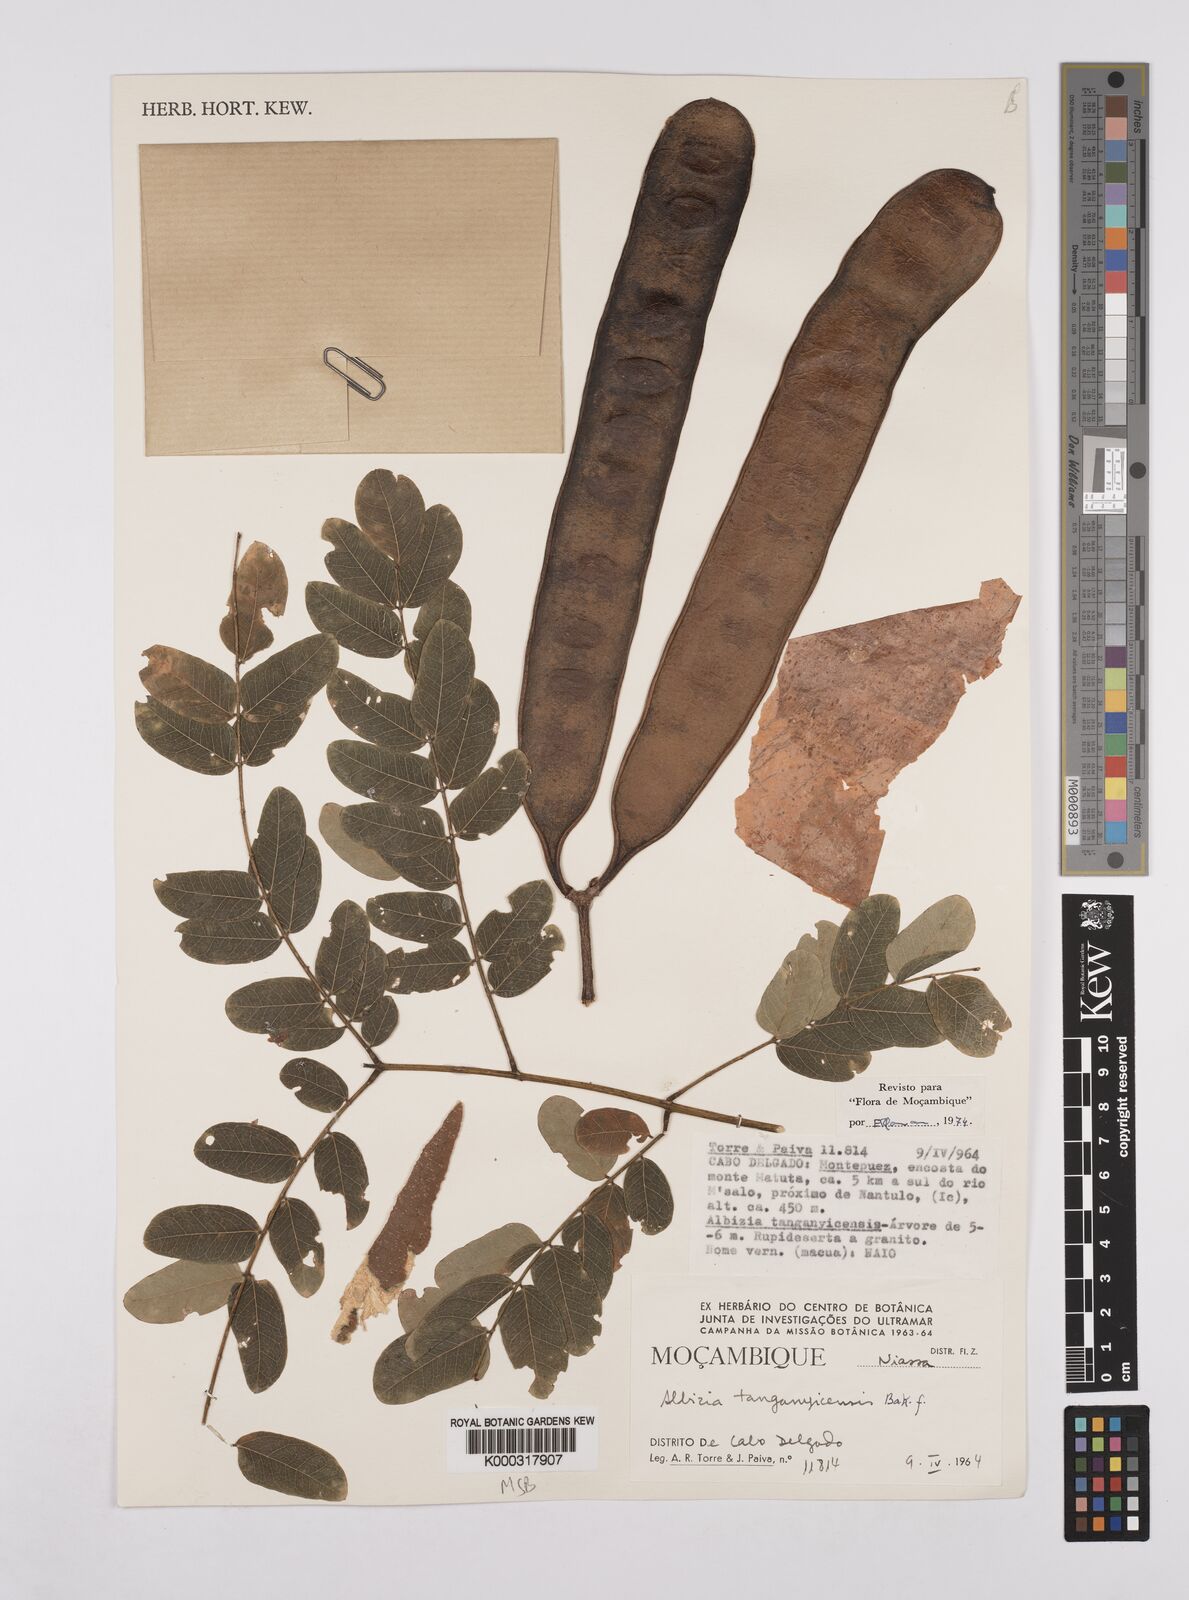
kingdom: Plantae
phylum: Tracheophyta
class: Magnoliopsida
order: Fabales
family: Fabaceae
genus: Albizia
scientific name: Albizia tanganyicensis
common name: Paperbark false thorn
